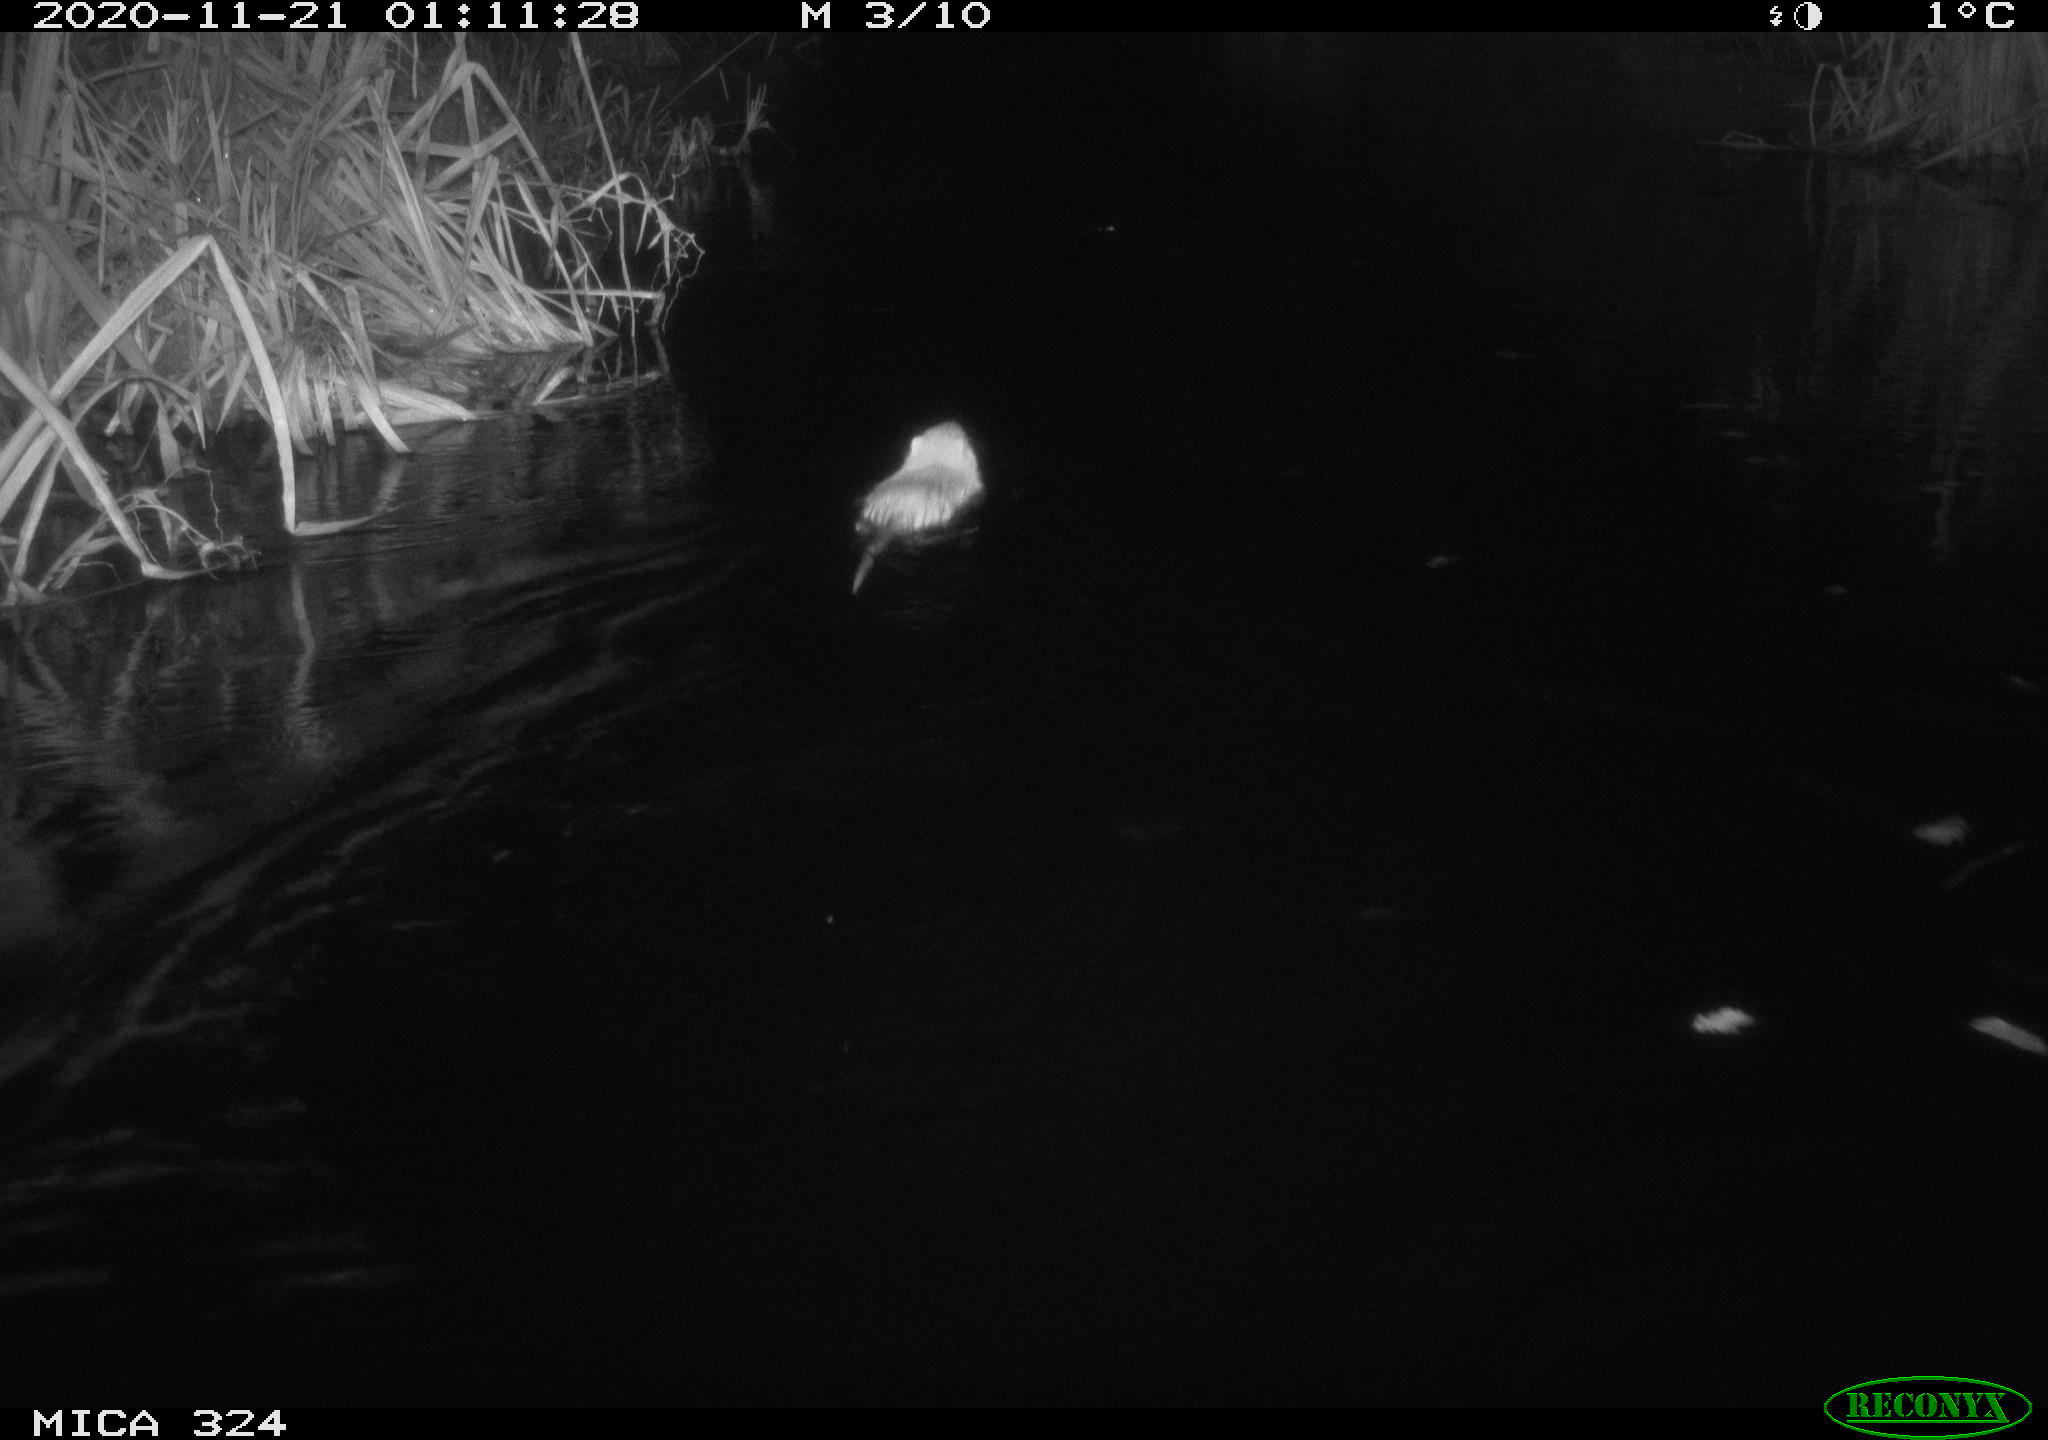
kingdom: Animalia
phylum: Chordata
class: Mammalia
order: Rodentia
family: Myocastoridae
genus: Myocastor
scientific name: Myocastor coypus
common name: Coypu
